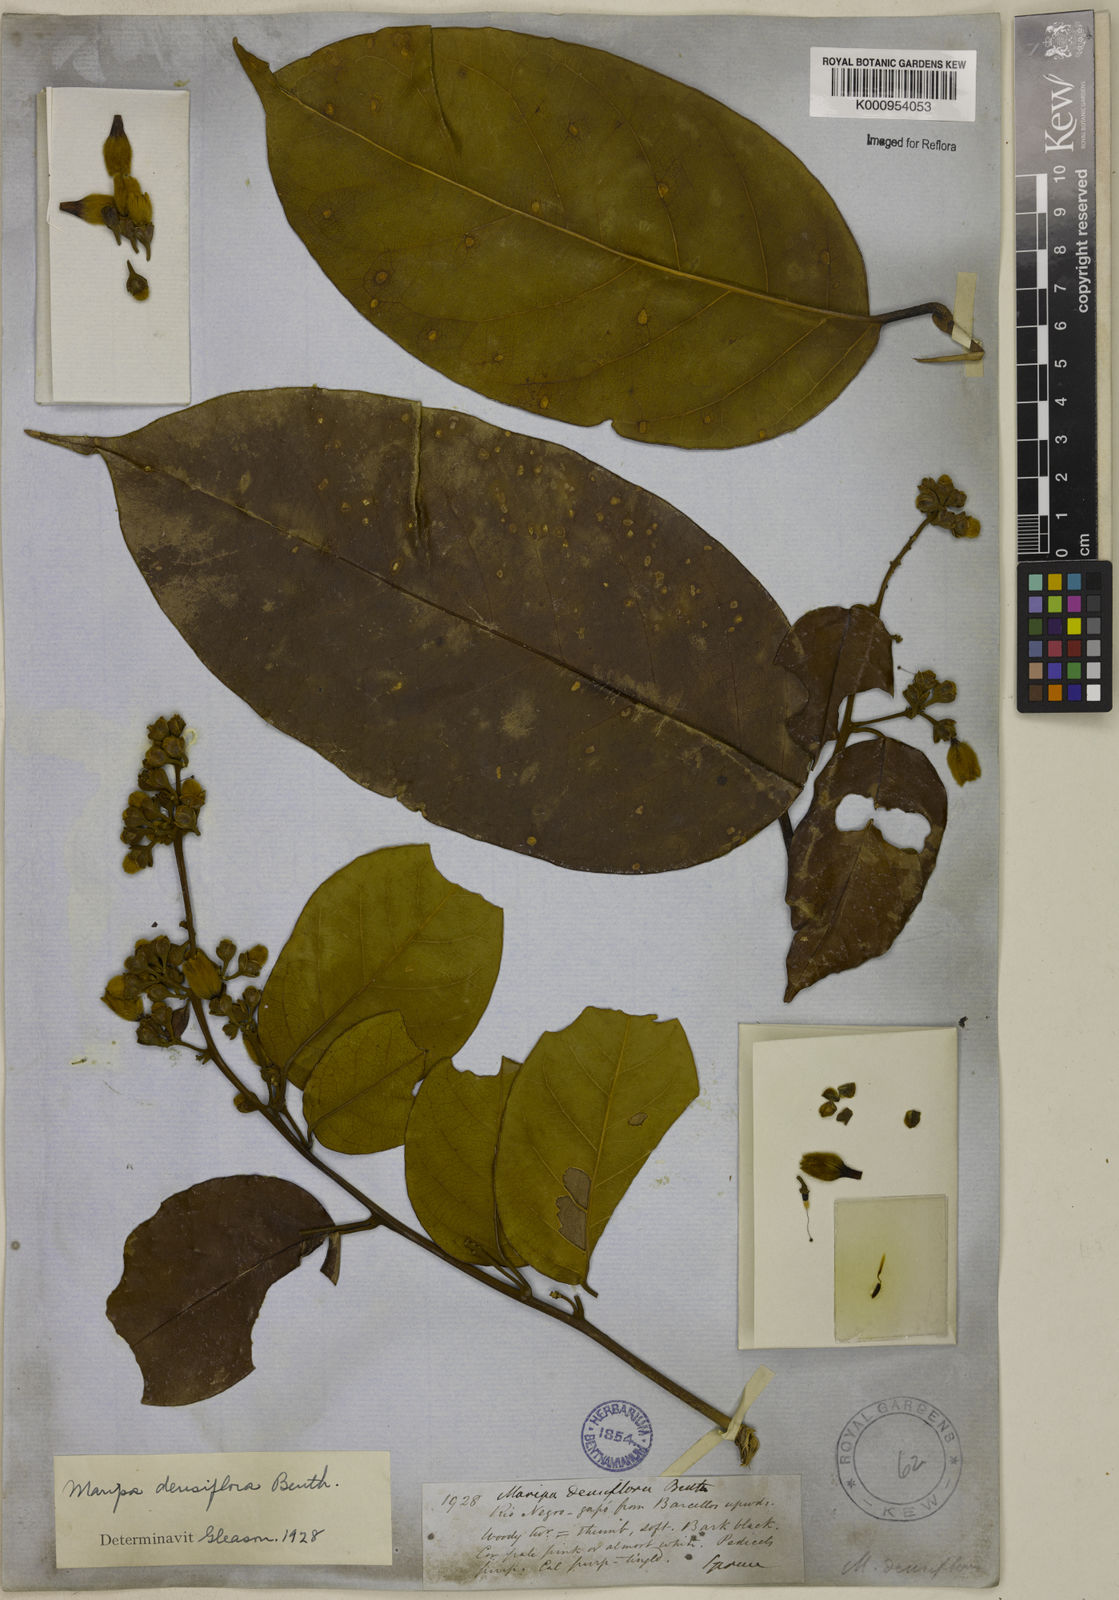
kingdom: Plantae
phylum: Tracheophyta
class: Magnoliopsida
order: Solanales
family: Convolvulaceae
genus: Maripa
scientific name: Maripa densiflora
